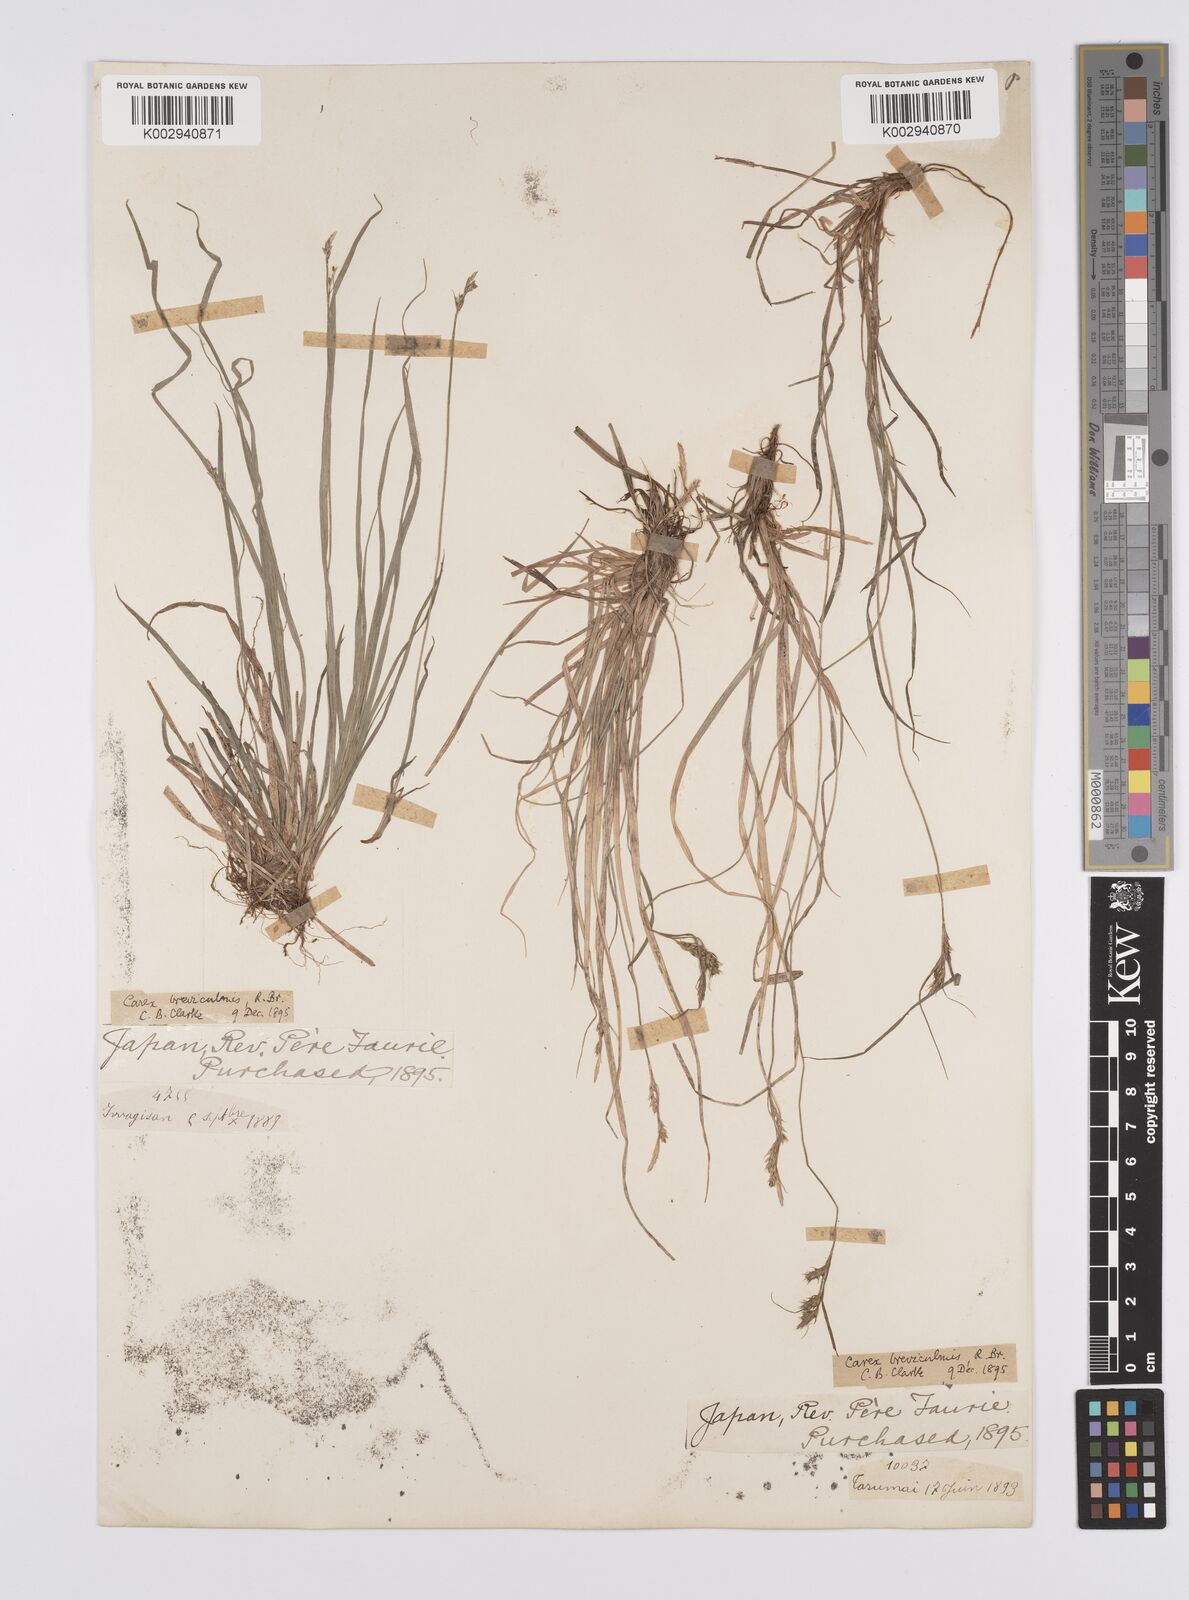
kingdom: Plantae
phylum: Tracheophyta
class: Liliopsida
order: Poales
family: Cyperaceae
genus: Carex
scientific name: Carex breviculmis
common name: Asian shortstem sedge
